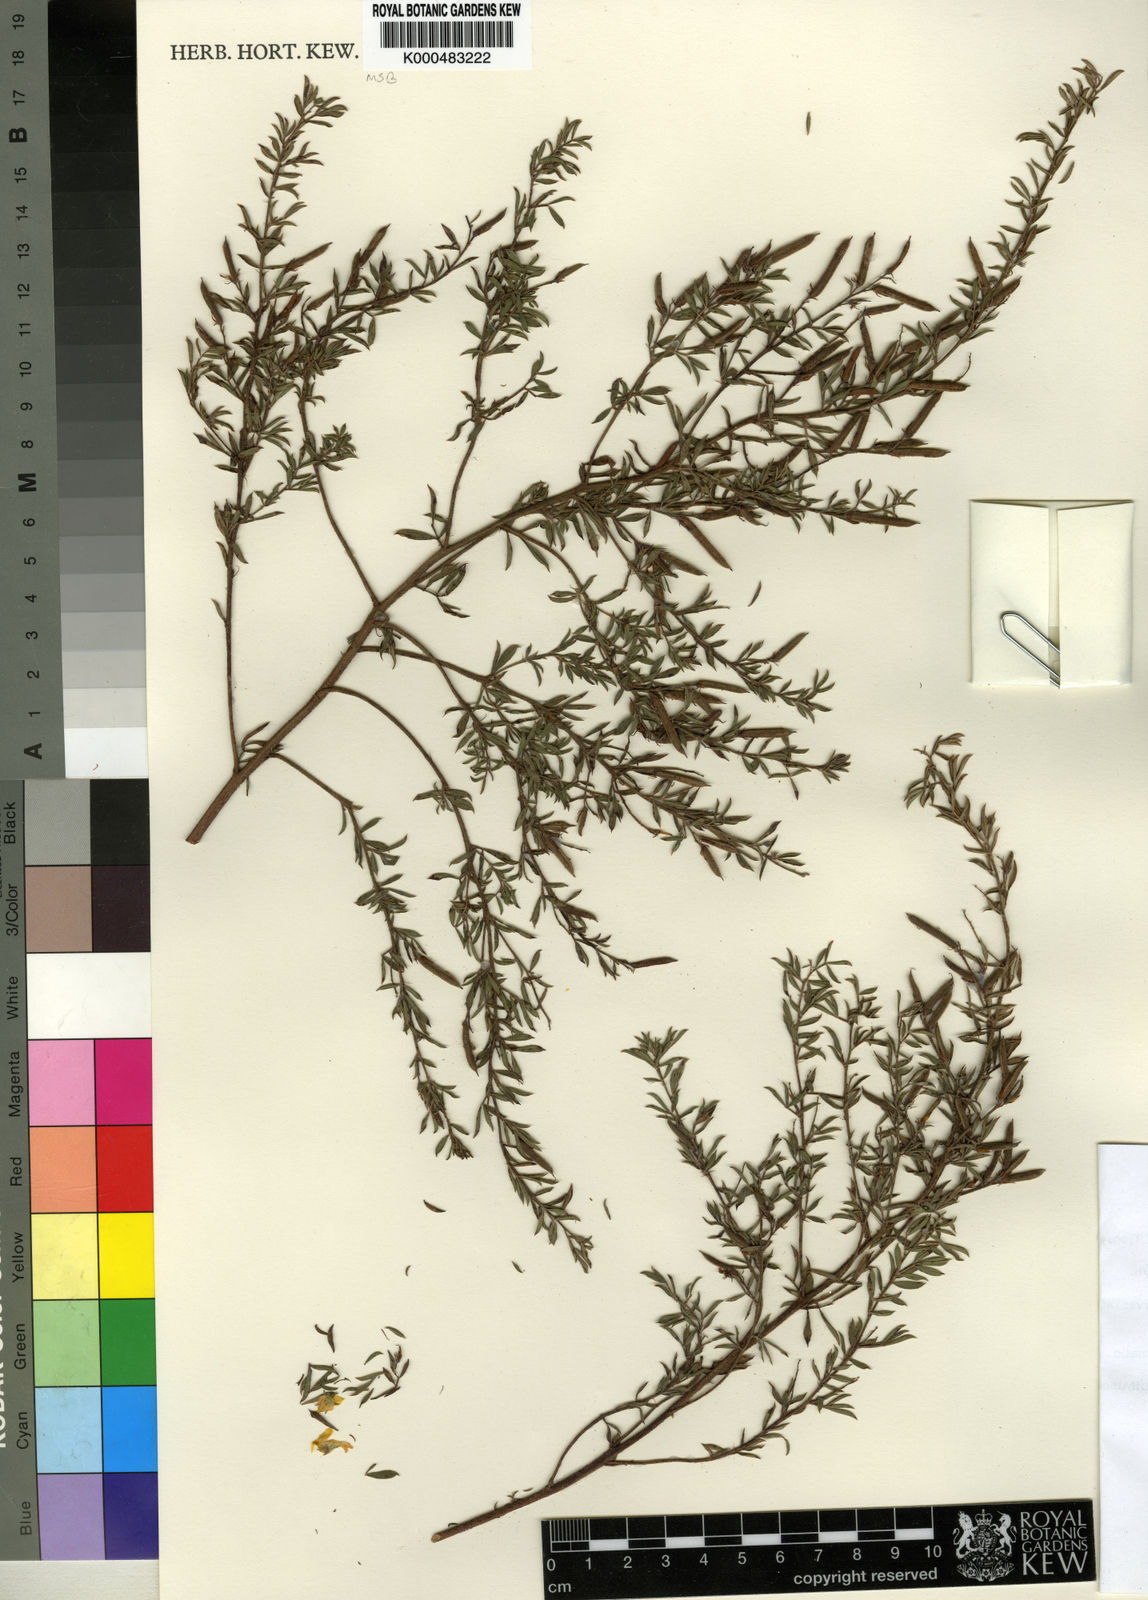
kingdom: Plantae
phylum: Tracheophyta
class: Magnoliopsida
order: Fabales
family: Fabaceae
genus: Indigofera
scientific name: Indigofera hybrida
